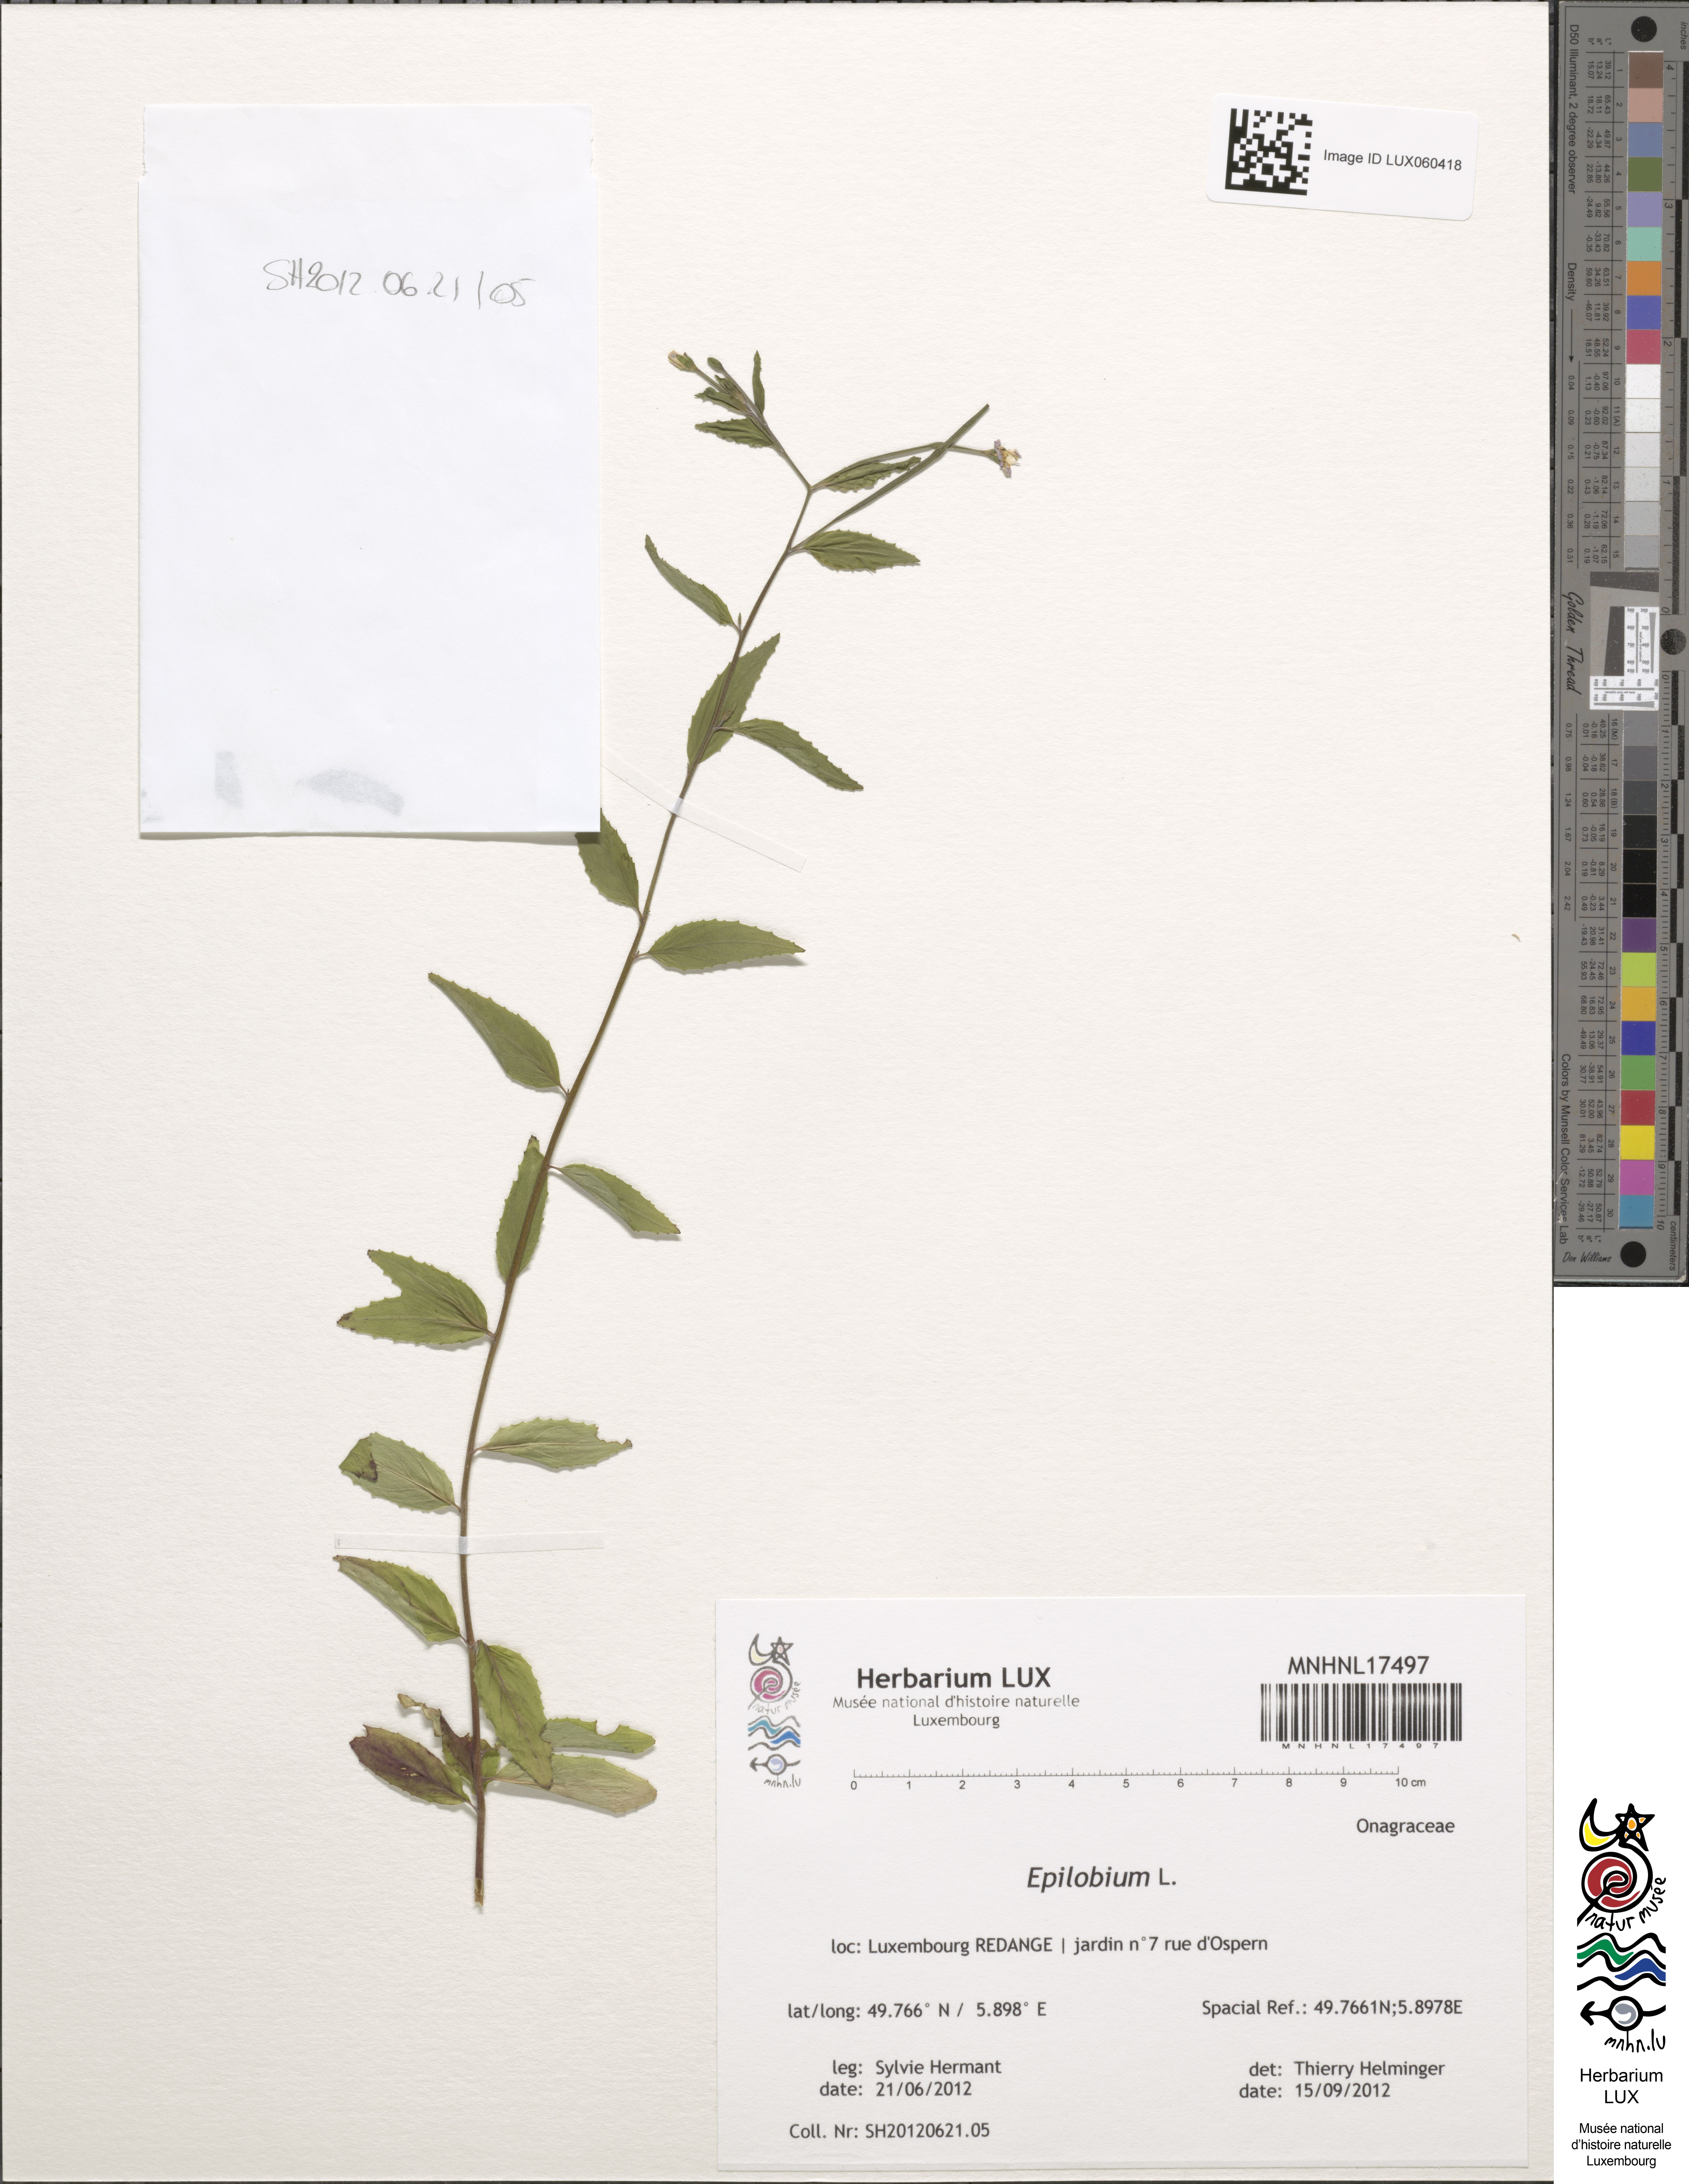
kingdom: Plantae
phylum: Tracheophyta
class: Magnoliopsida
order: Myrtales
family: Onagraceae
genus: Epilobium
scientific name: Epilobium
